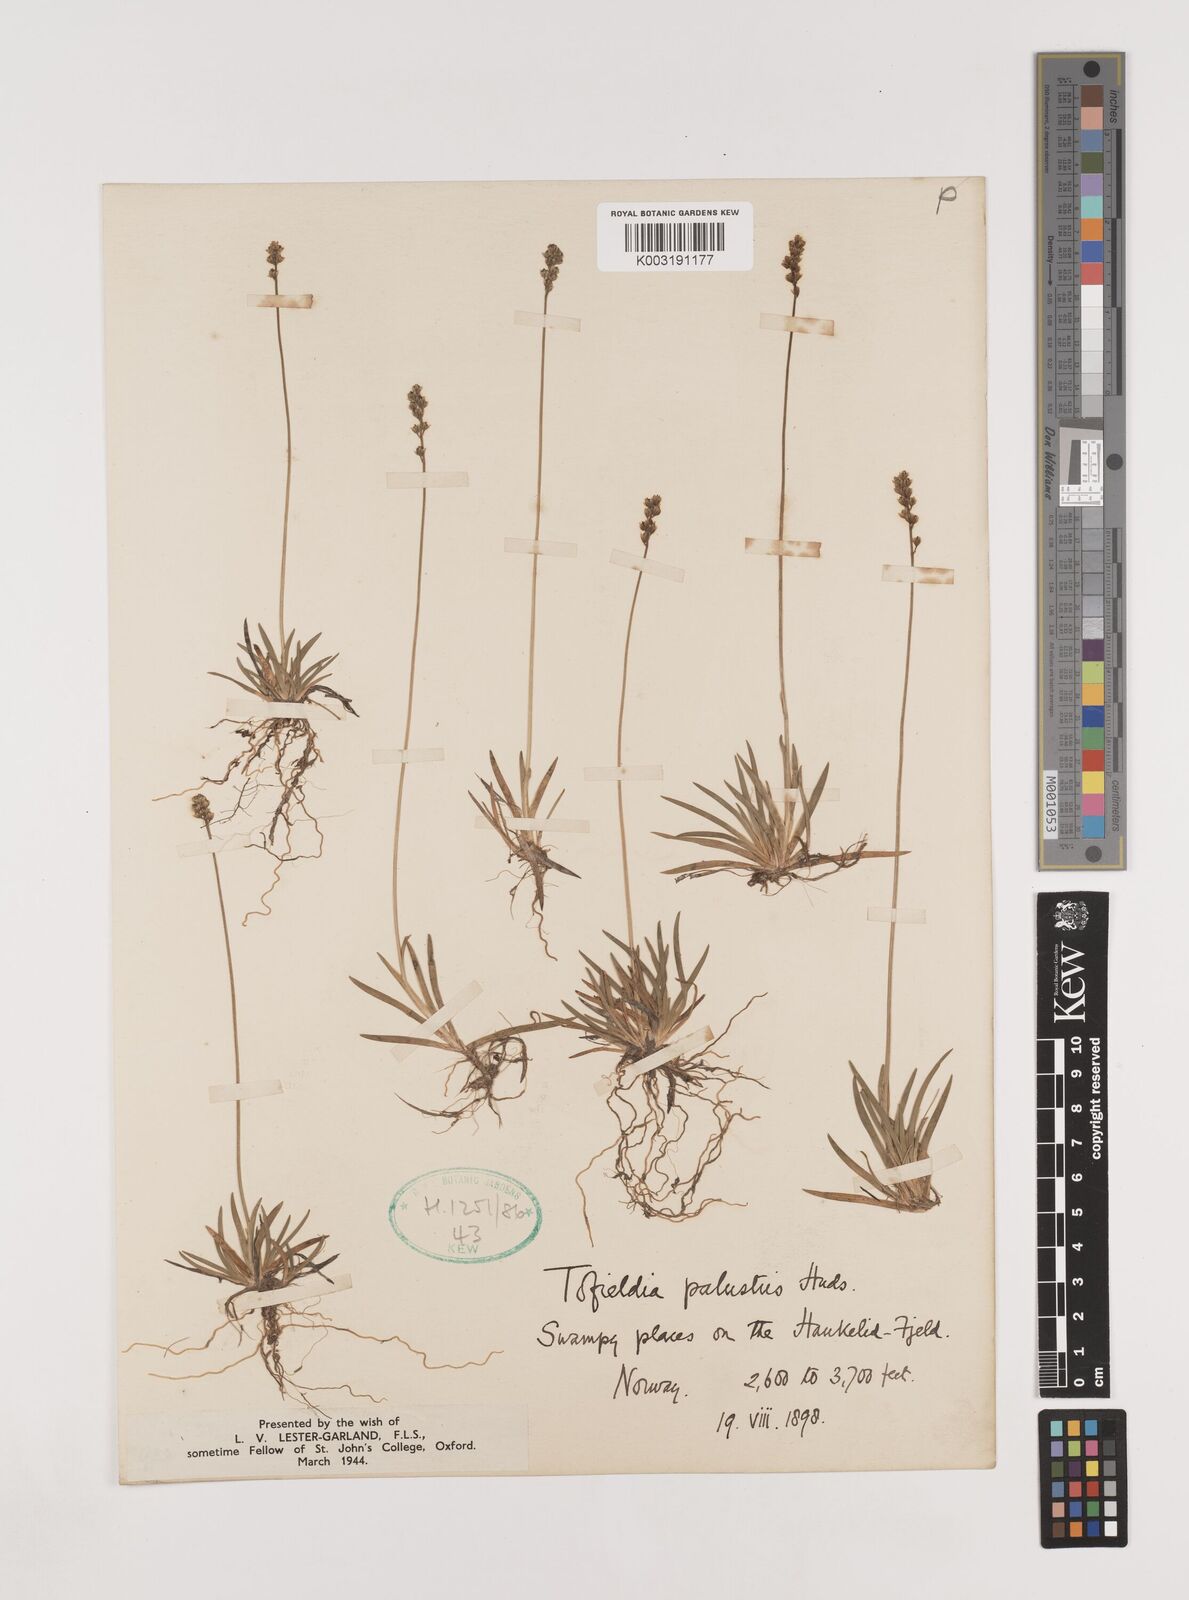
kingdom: Plantae
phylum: Tracheophyta
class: Liliopsida
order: Alismatales
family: Tofieldiaceae
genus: Tofieldia
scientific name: Tofieldia pusilla
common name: Scottish false asphodel
